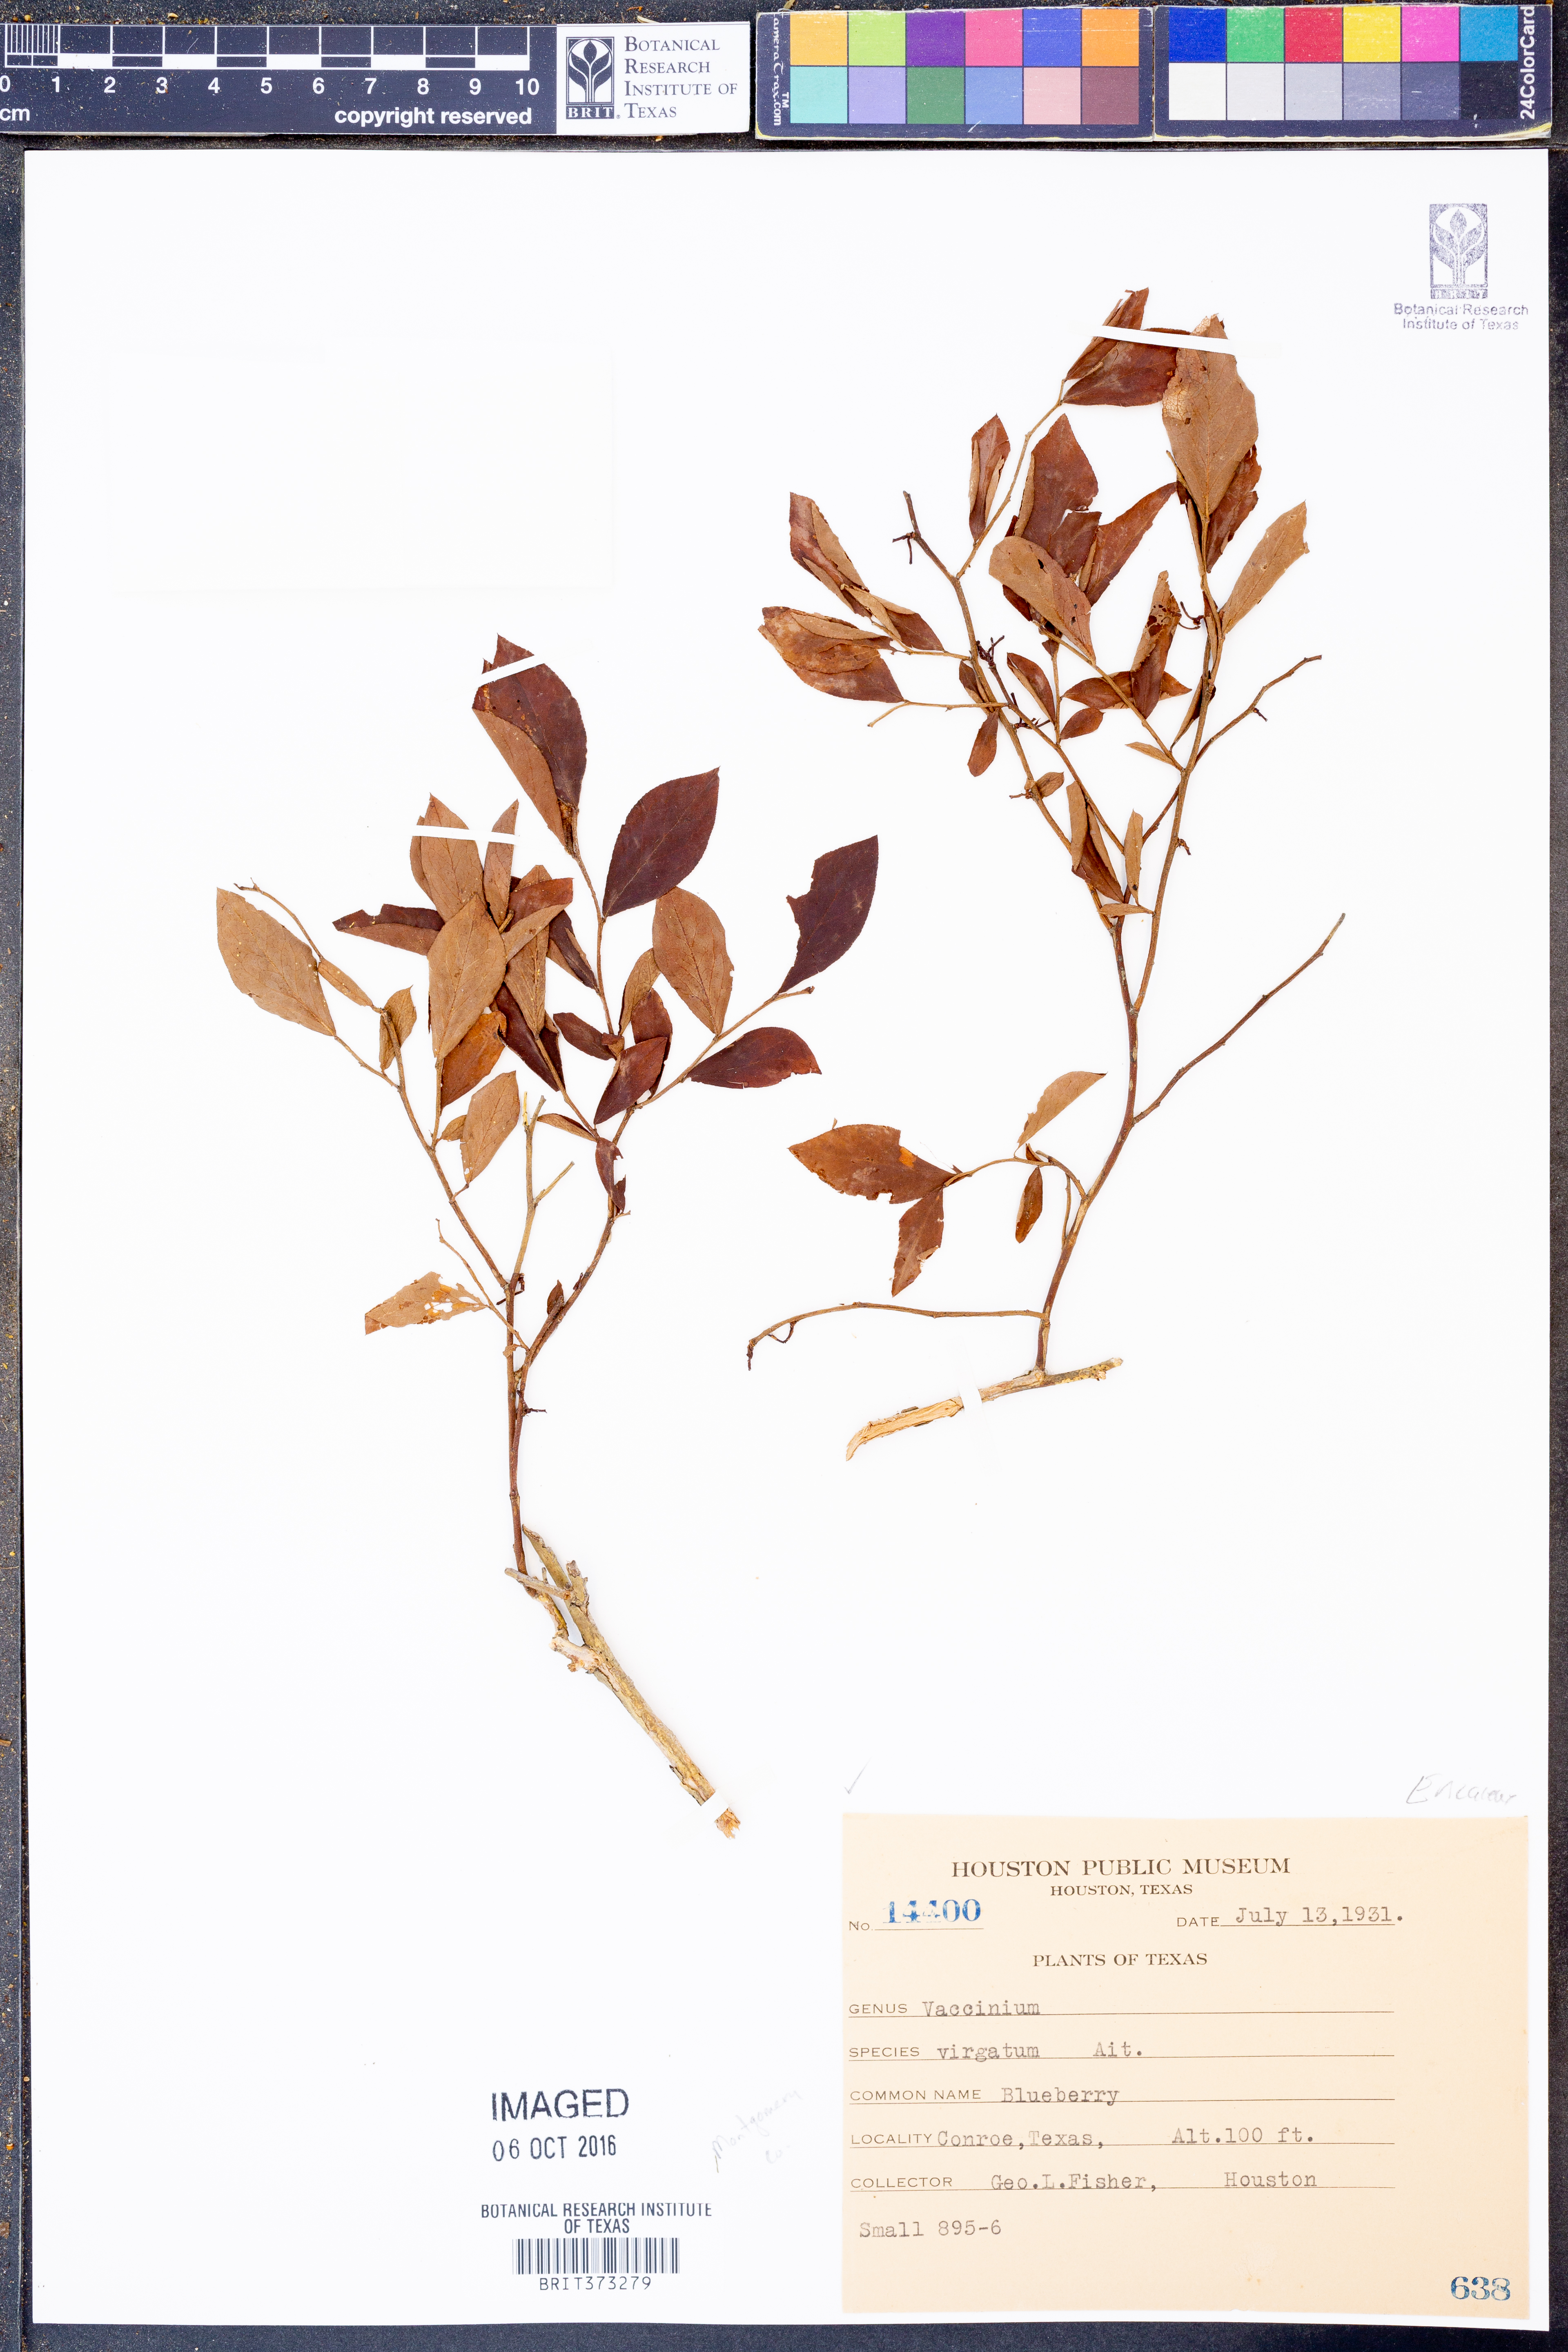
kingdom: Plantae
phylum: Tracheophyta
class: Magnoliopsida
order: Ericales
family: Ericaceae
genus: Vaccinium
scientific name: Vaccinium corymbosum
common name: Blueberry
